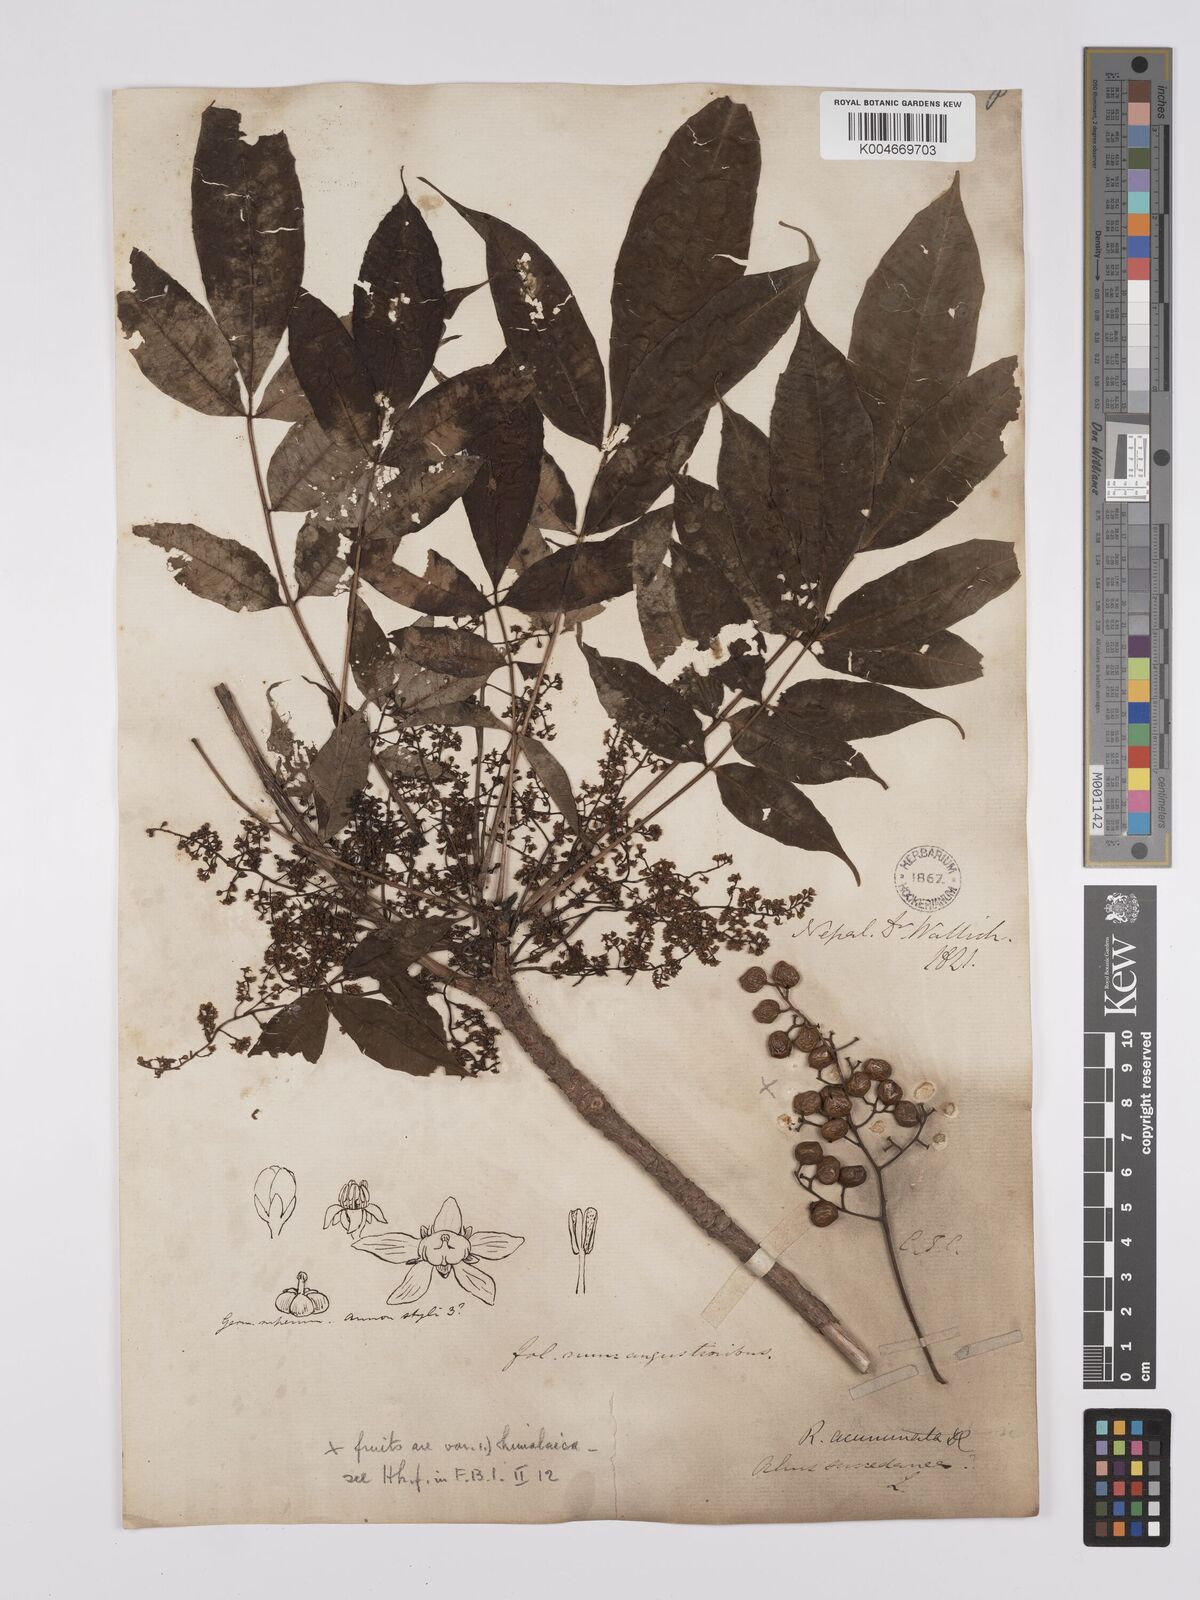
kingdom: Plantae
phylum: Tracheophyta
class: Magnoliopsida
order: Sapindales
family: Anacardiaceae
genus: Toxicodendron
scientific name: Toxicodendron succedaneum
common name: Wax tree
